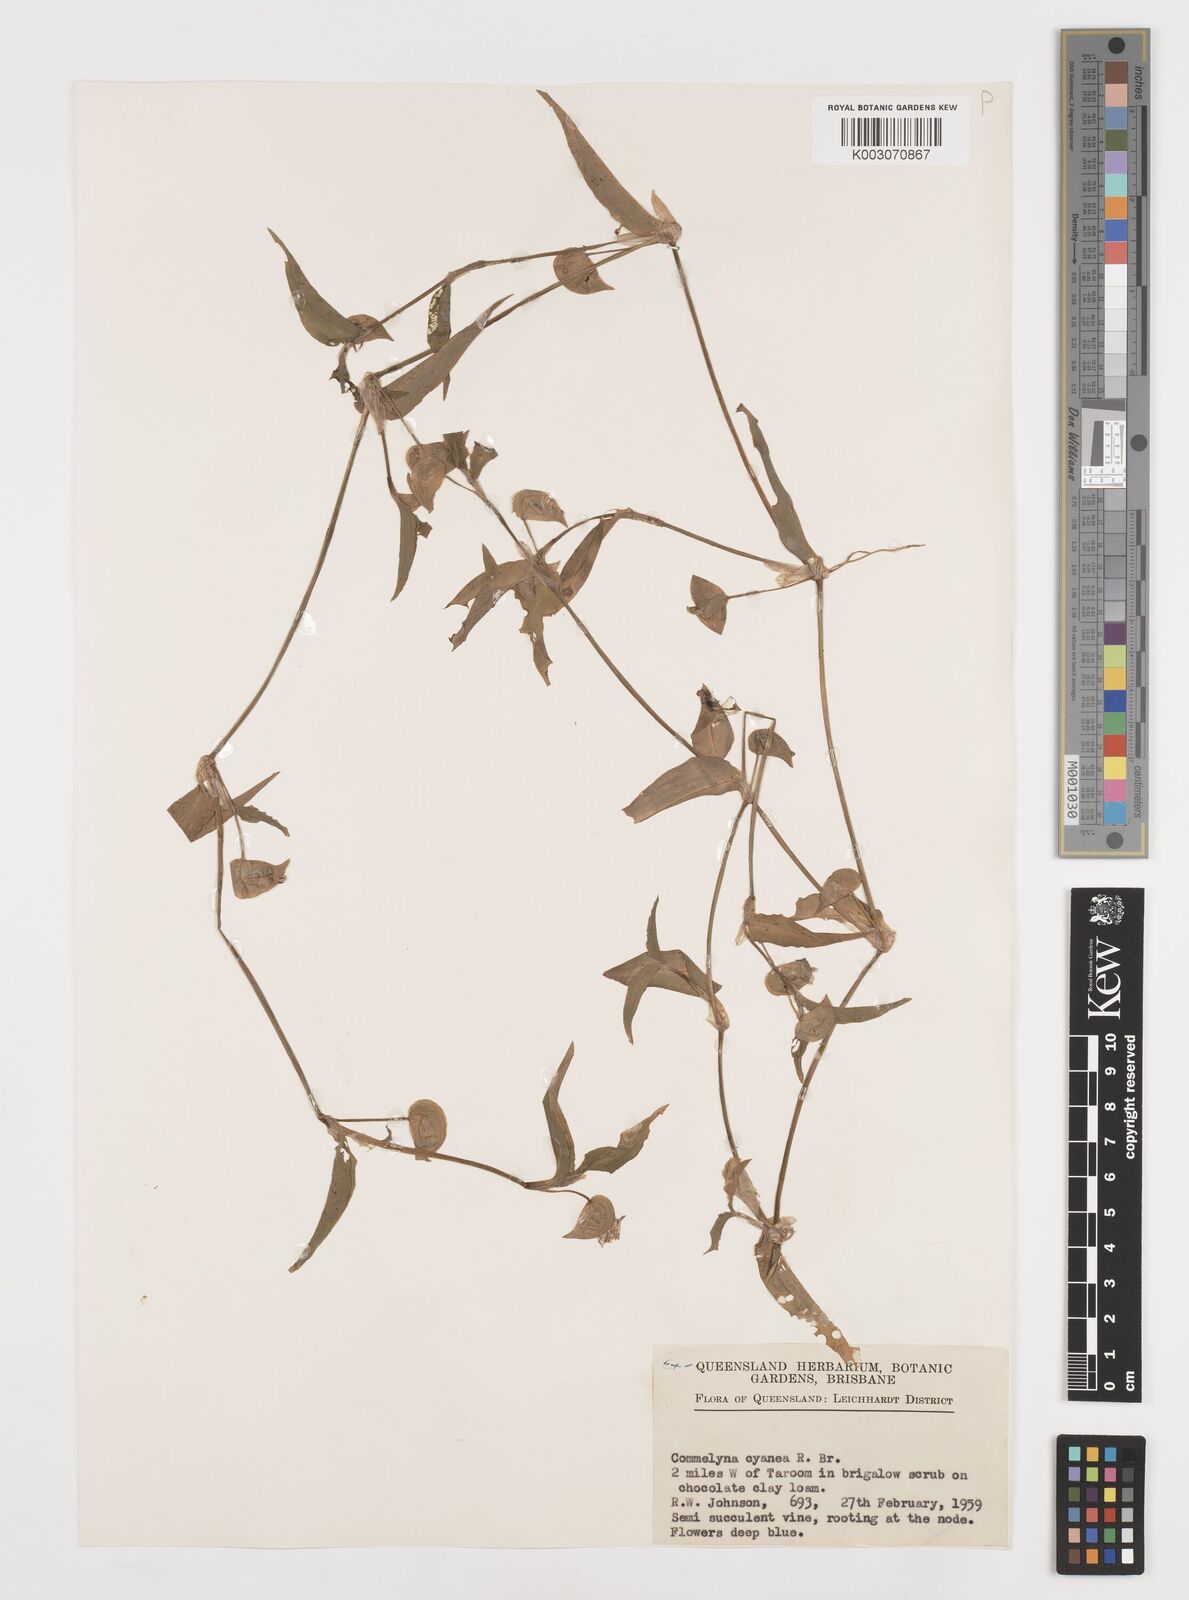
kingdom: Plantae
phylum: Tracheophyta
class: Liliopsida
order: Commelinales
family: Commelinaceae
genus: Commelina
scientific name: Commelina cyanea
